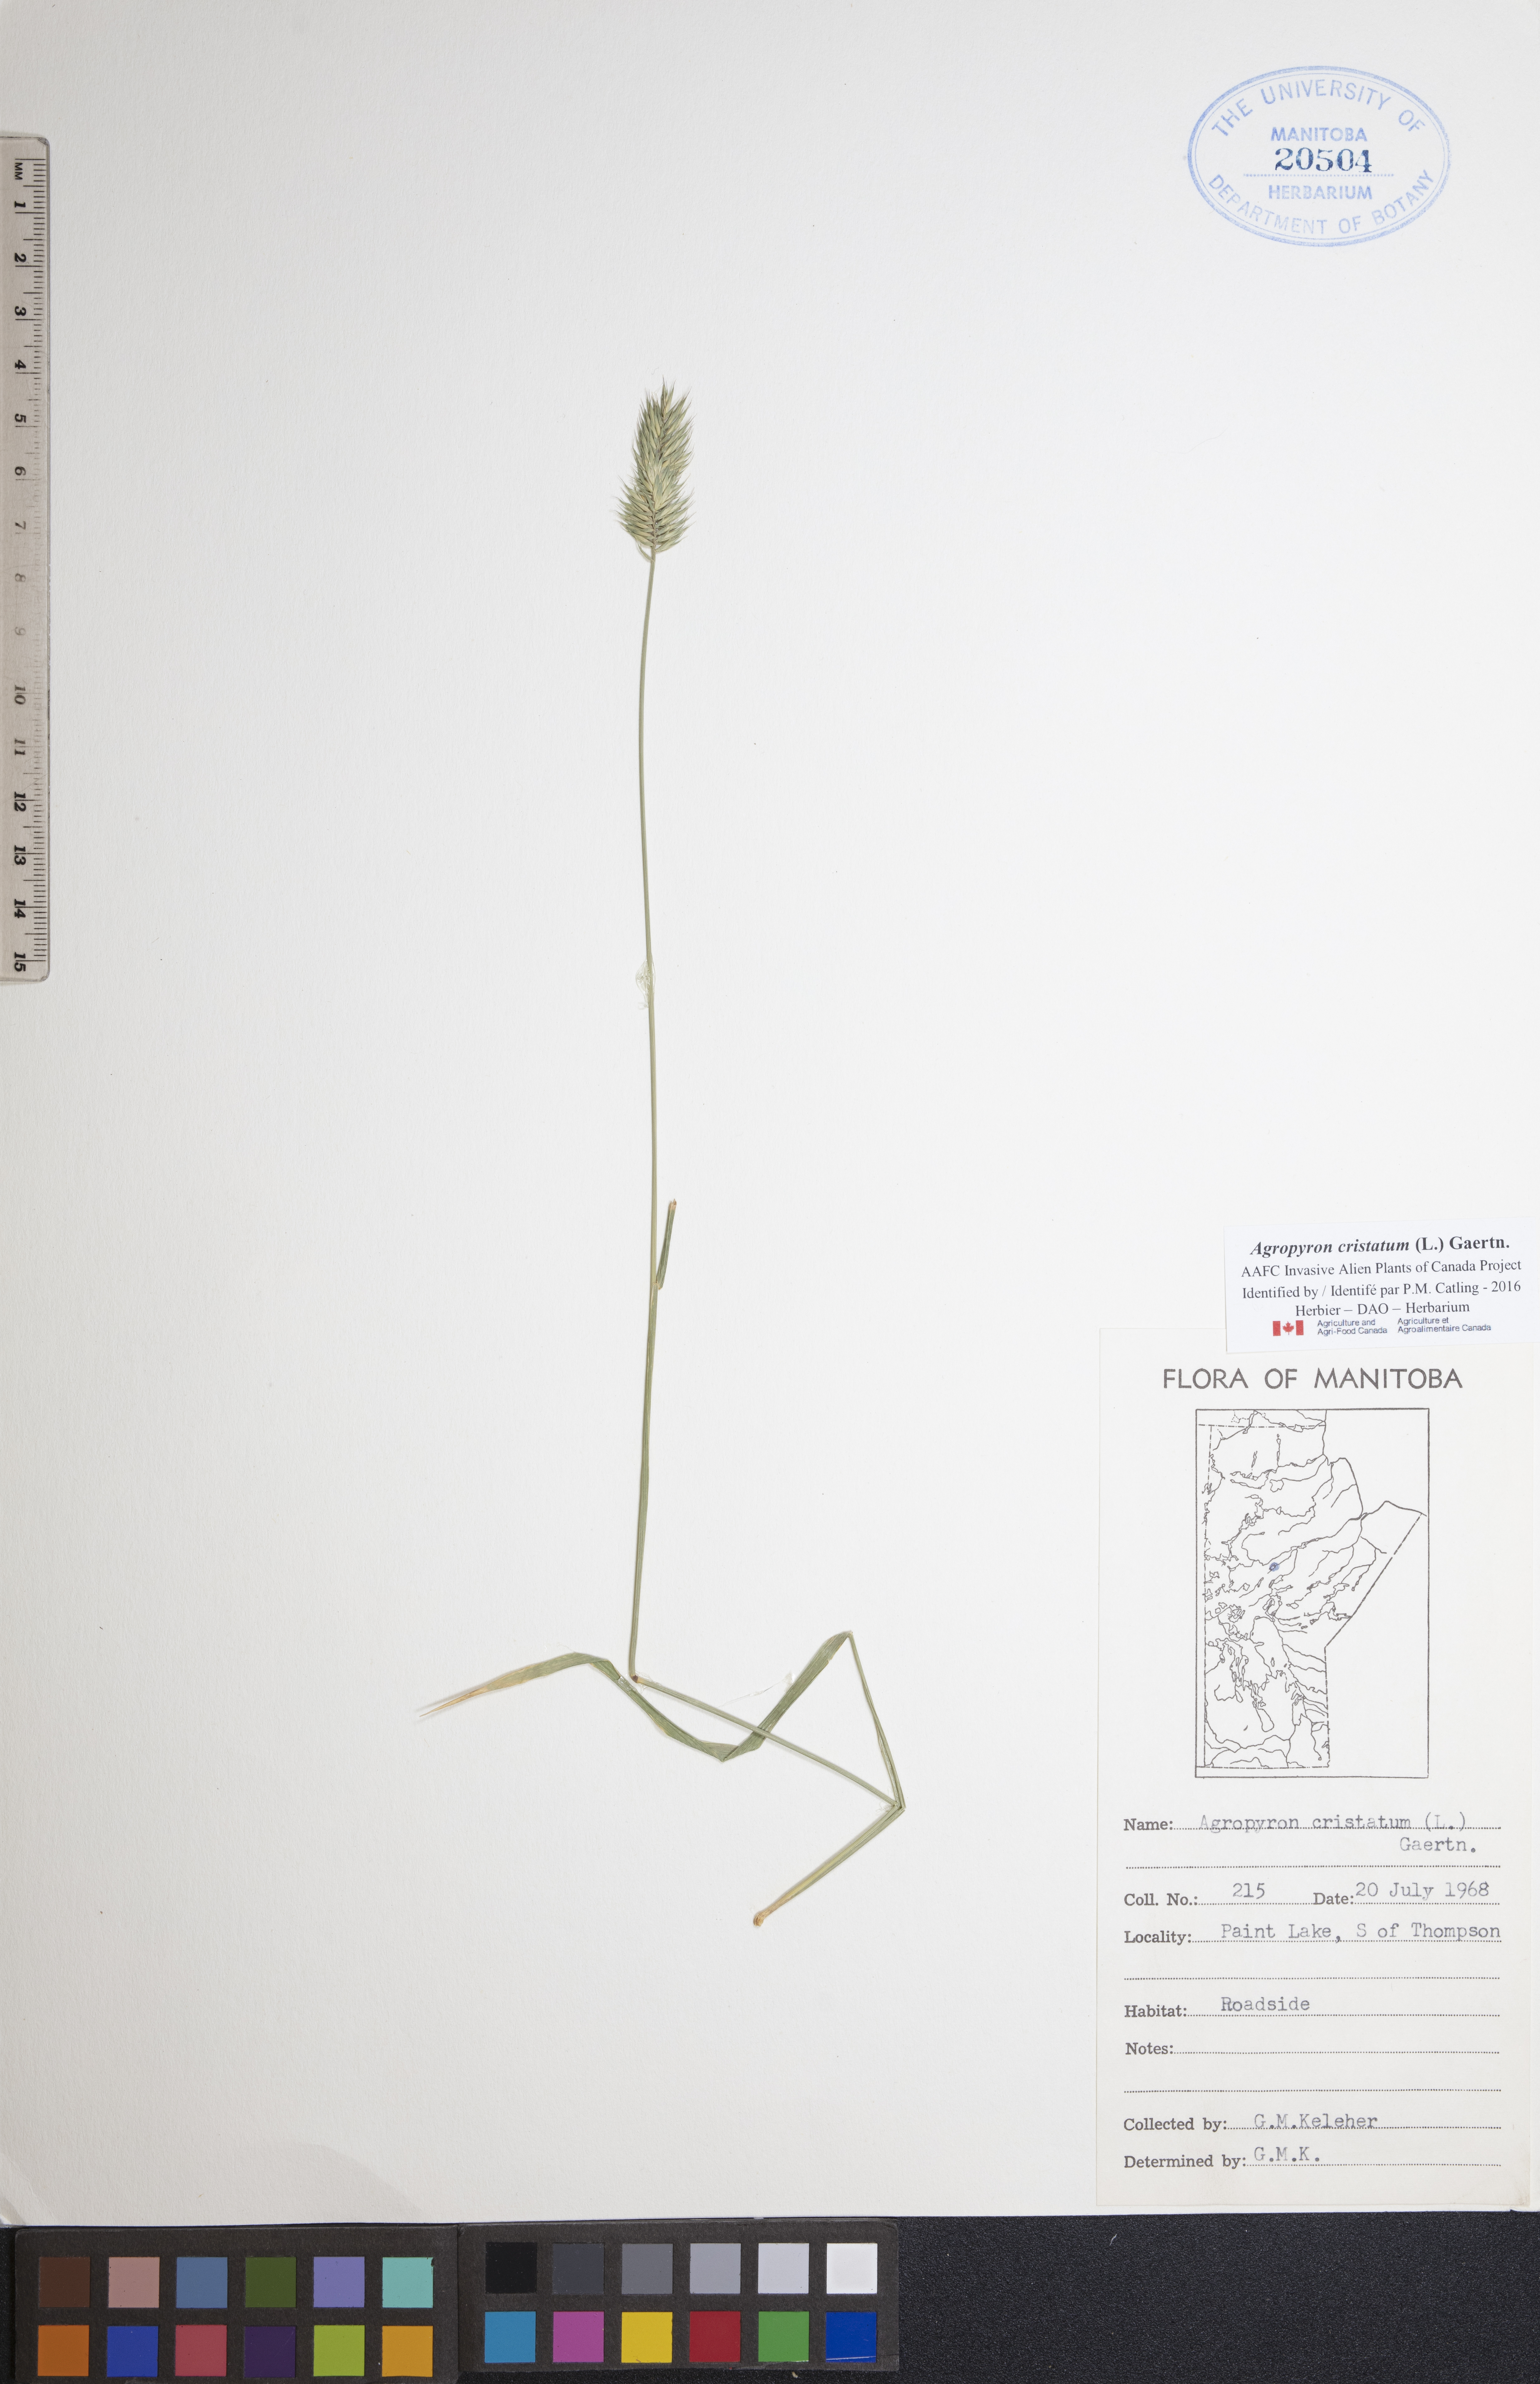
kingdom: Plantae
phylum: Tracheophyta
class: Liliopsida
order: Poales
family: Poaceae
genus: Agropyron
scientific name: Agropyron cristatum
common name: Crested wheatgrass
